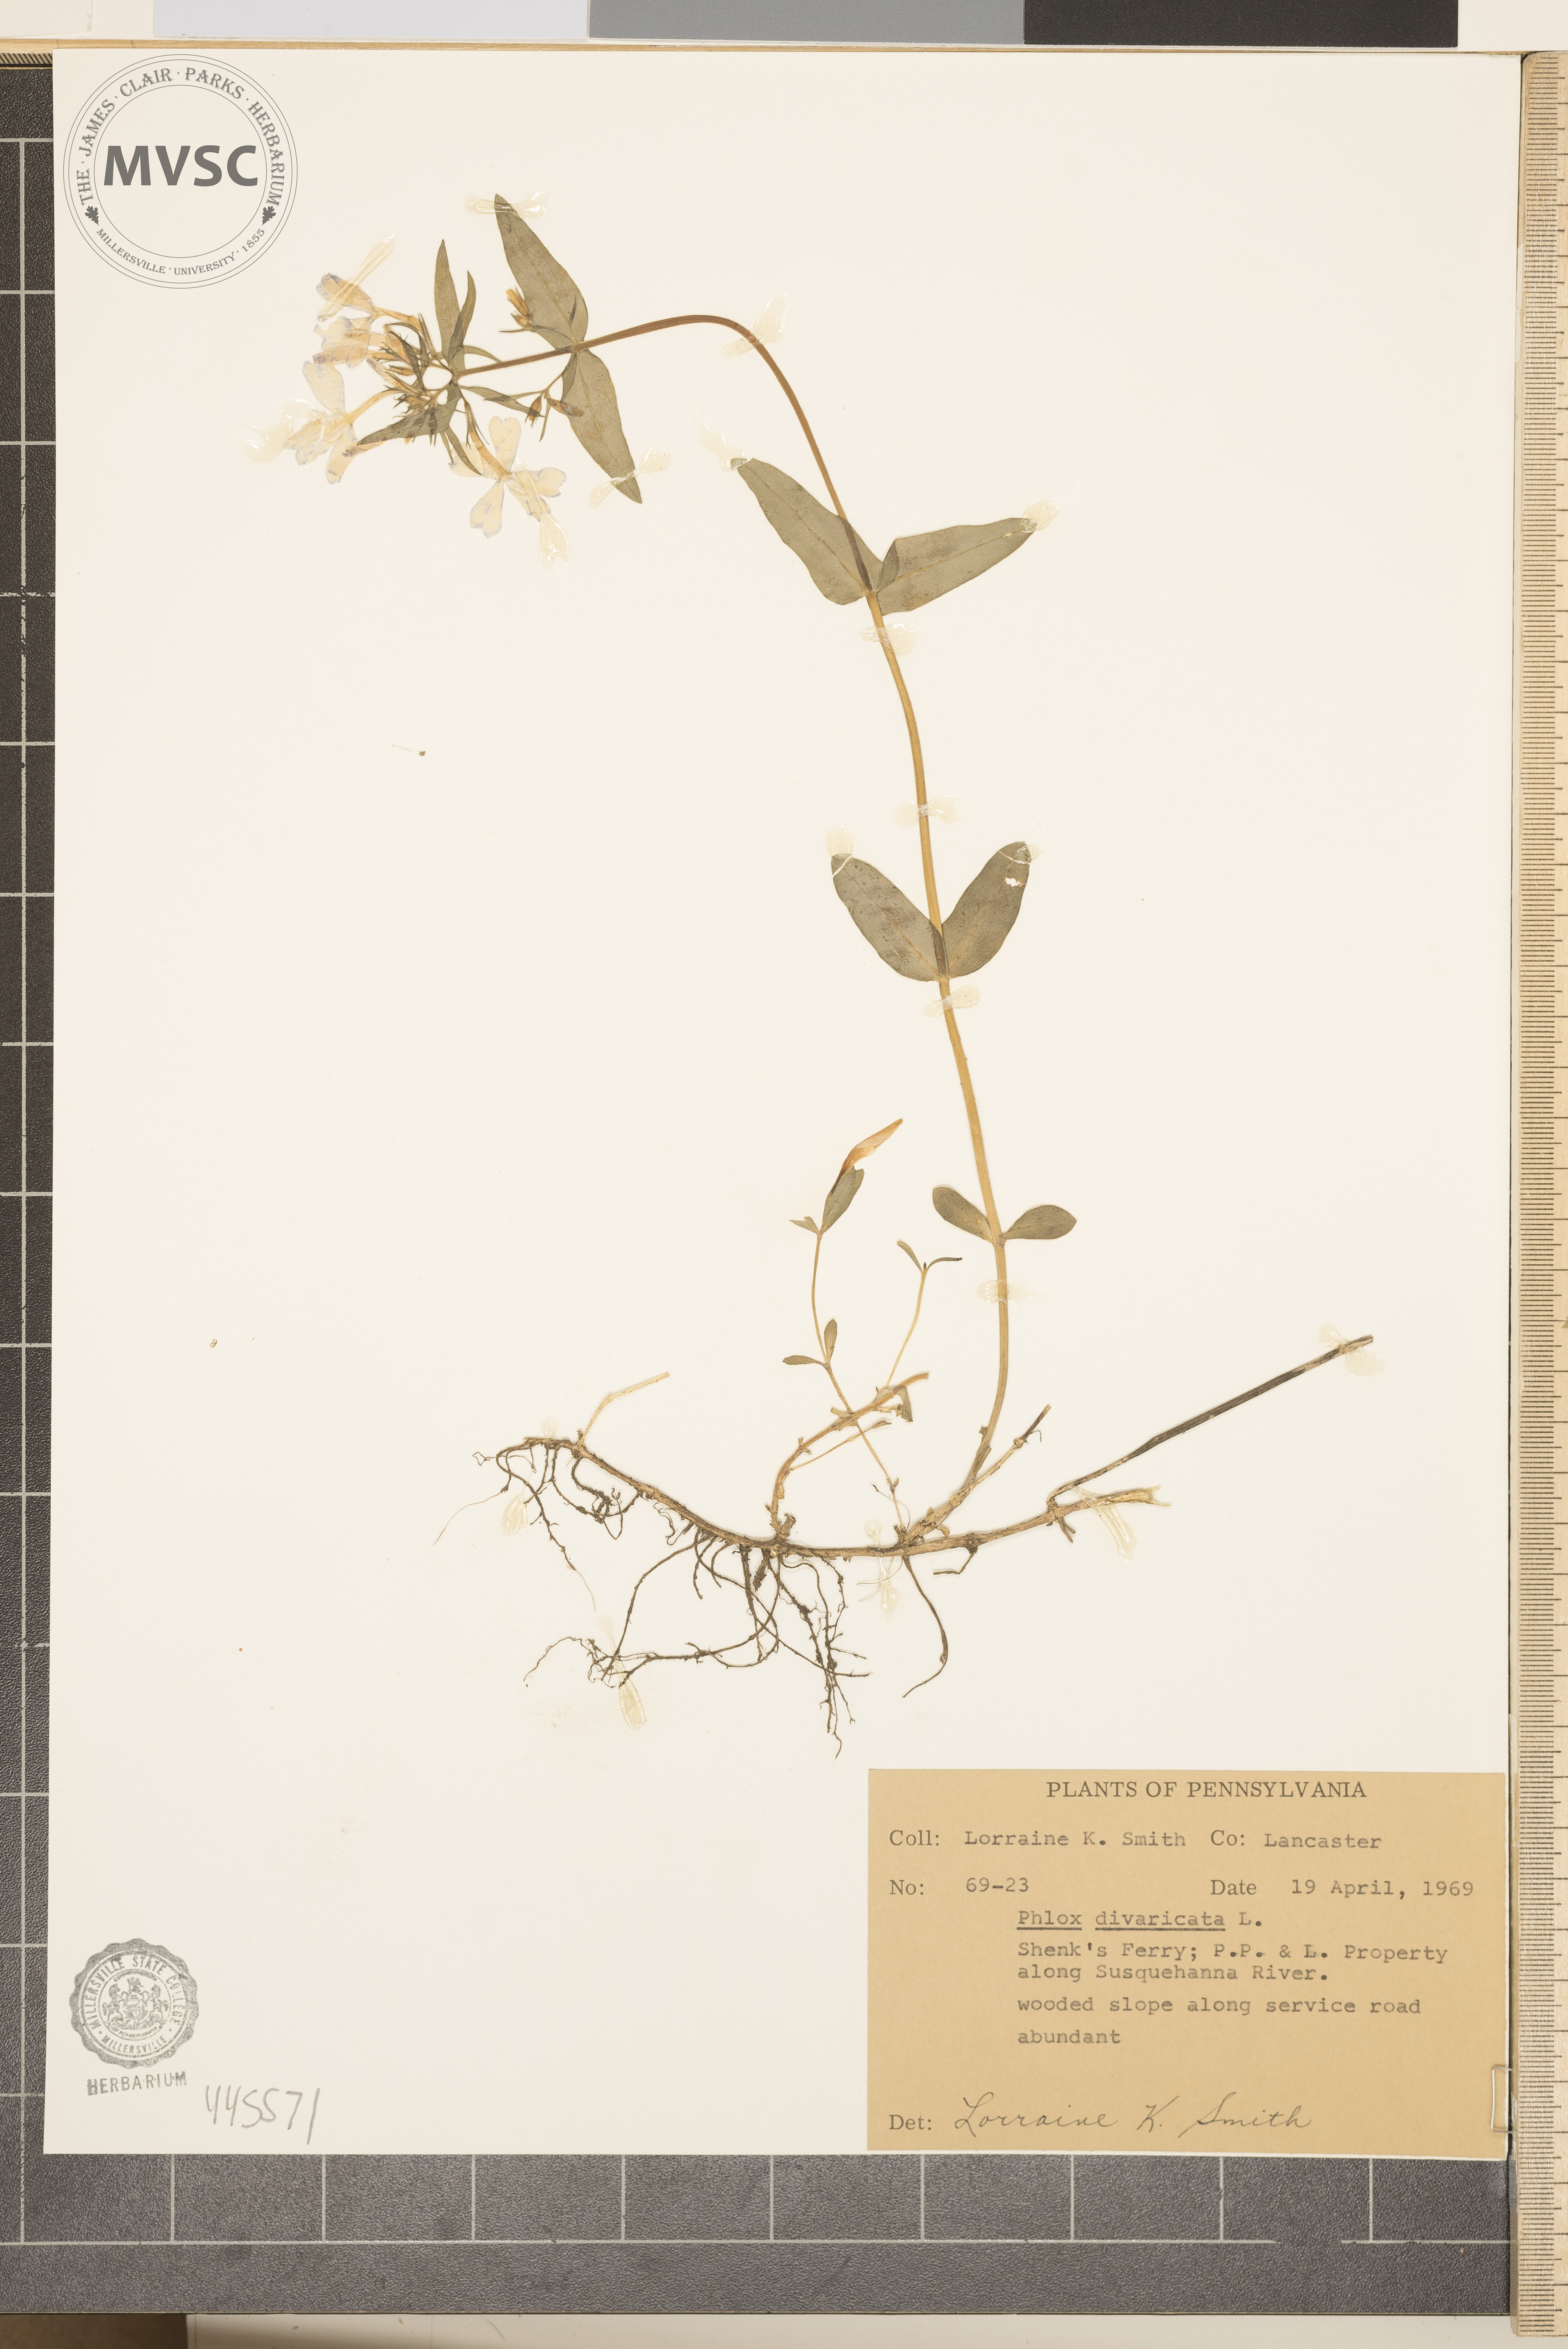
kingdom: Plantae
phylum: Tracheophyta
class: Magnoliopsida
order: Ericales
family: Polemoniaceae
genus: Phlox
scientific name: Phlox divaricata
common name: Blue phlox
